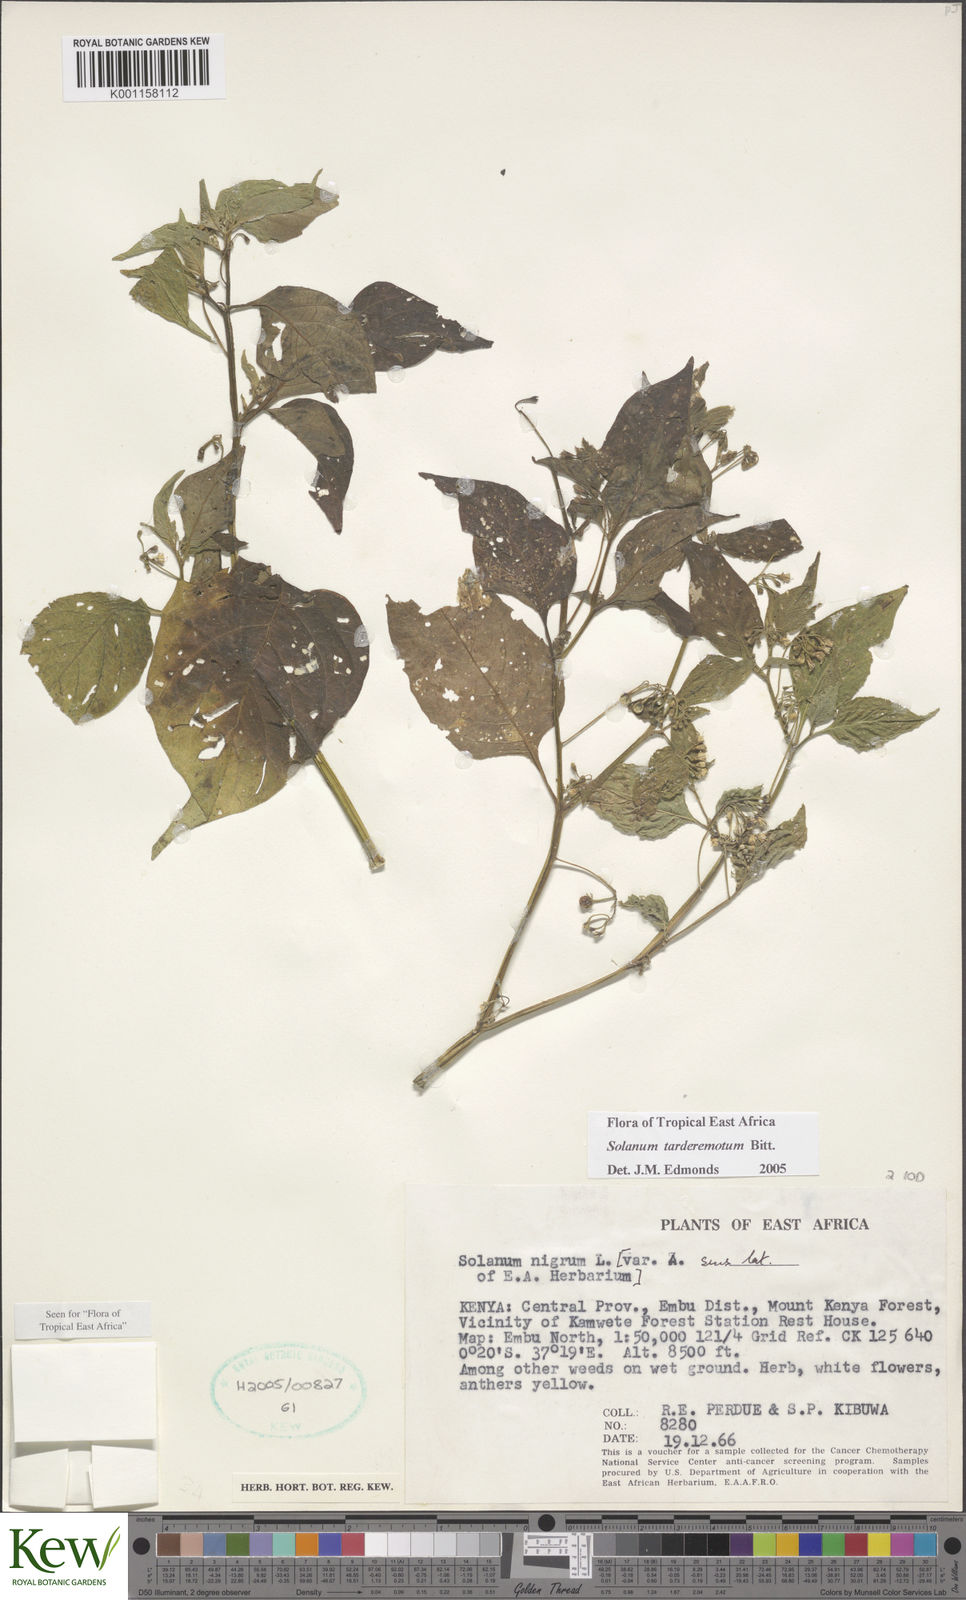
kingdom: Plantae
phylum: Tracheophyta
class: Magnoliopsida
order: Solanales
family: Solanaceae
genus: Solanum
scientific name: Solanum tarderemotum
